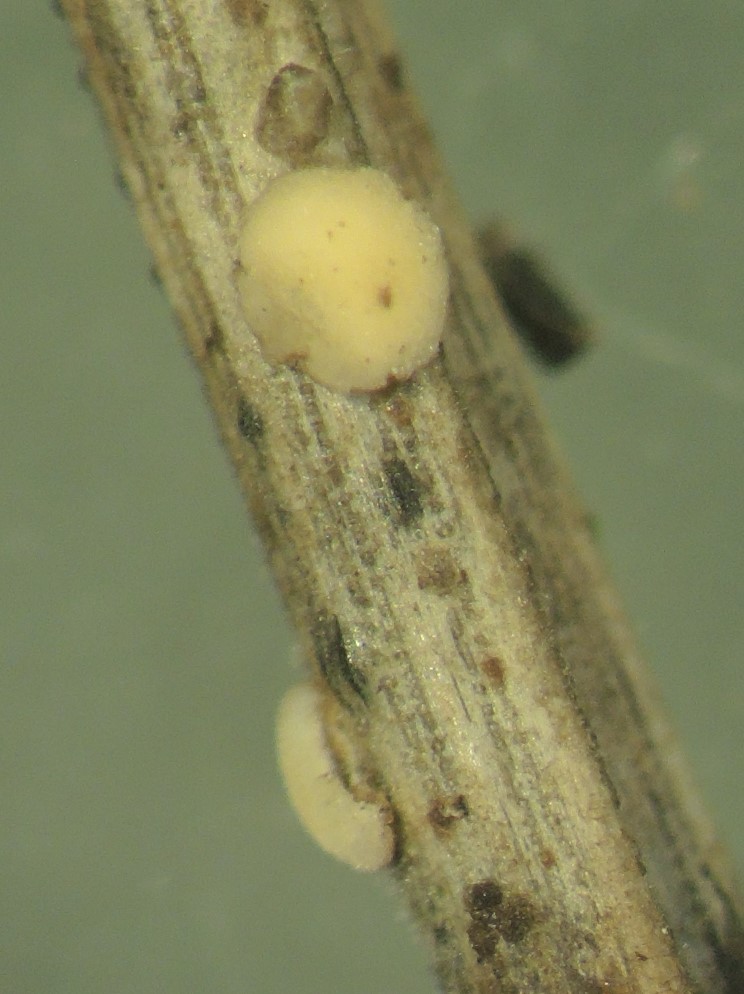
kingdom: Fungi
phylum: Ascomycota
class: Leotiomycetes
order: Helotiales
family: Helotiaceae
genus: Pseudohelotium
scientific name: Pseudohelotium pineti
